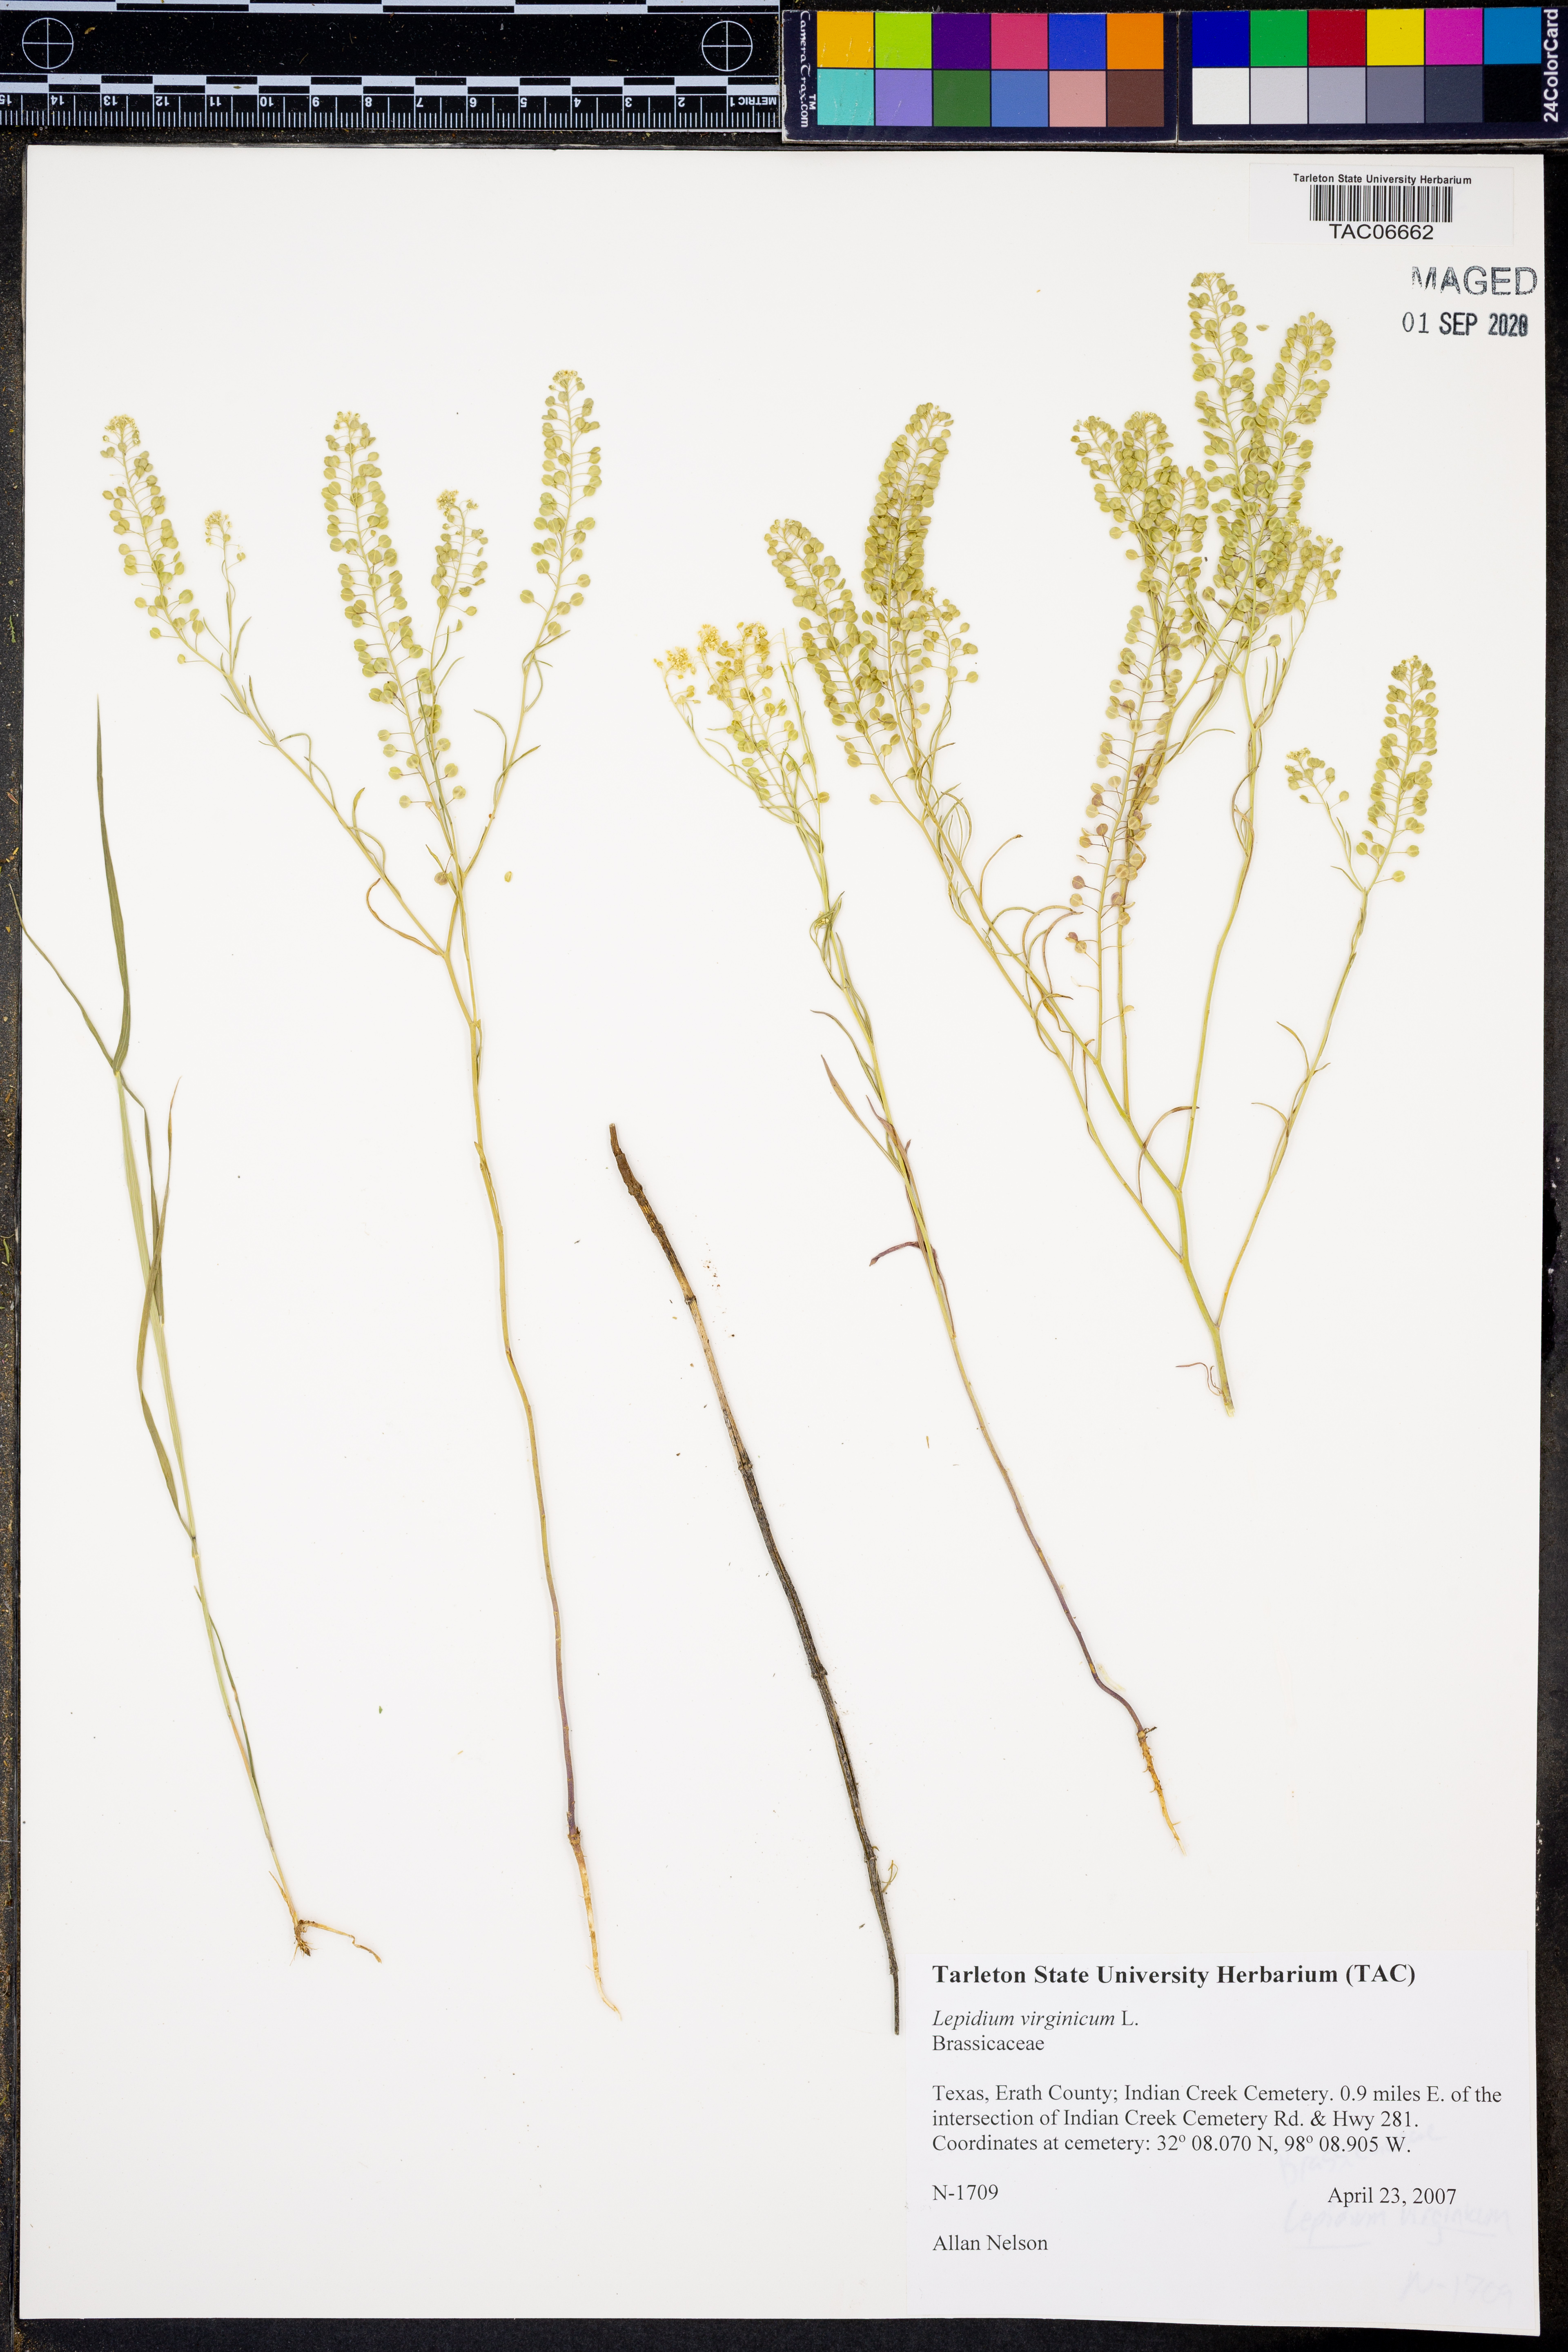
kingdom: Plantae
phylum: Tracheophyta
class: Magnoliopsida
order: Brassicales
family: Brassicaceae
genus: Lepidium
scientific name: Lepidium virginicum
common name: Least pepperwort
